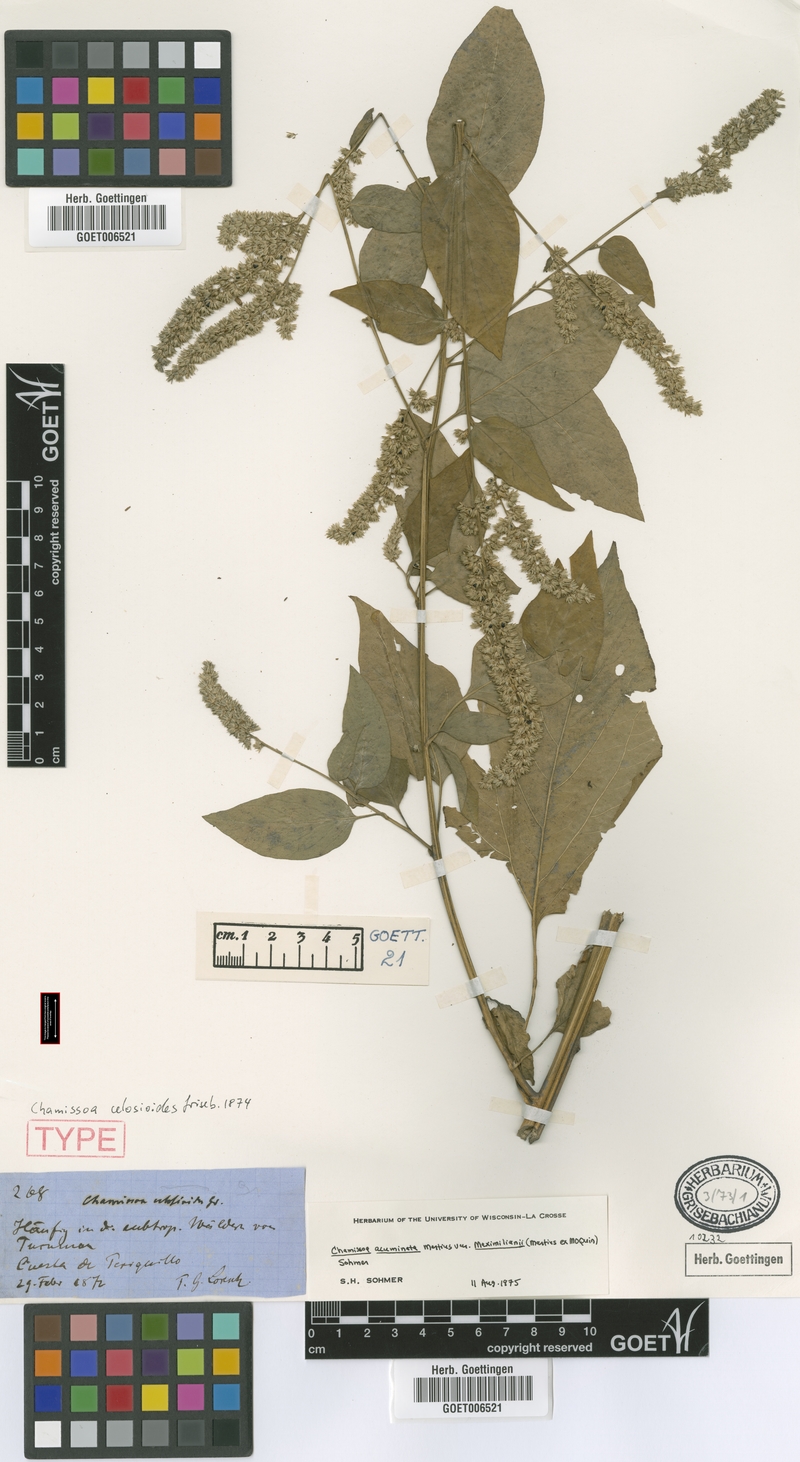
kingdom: Plantae
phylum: Tracheophyta
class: Magnoliopsida
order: Caryophyllales
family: Amaranthaceae
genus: Chamissoa
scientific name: Chamissoa acuminata
